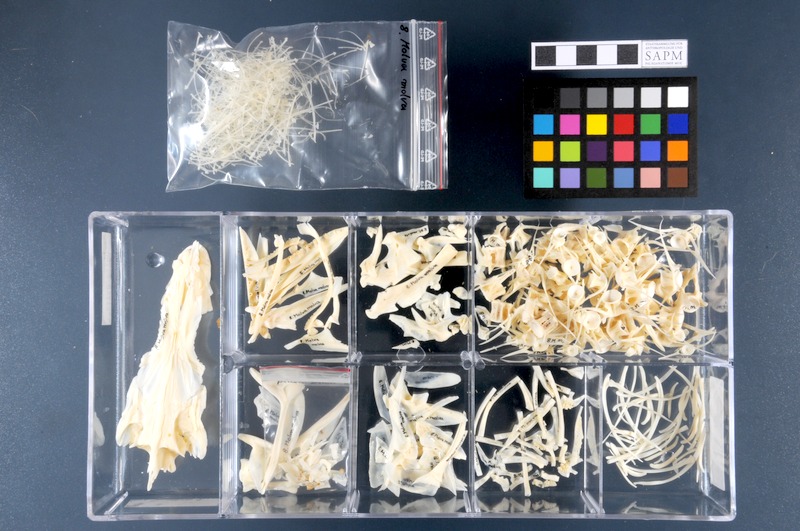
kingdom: Animalia
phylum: Chordata
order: Gadiformes
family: Lotidae
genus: Molva
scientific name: Molva molva
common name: Ling
